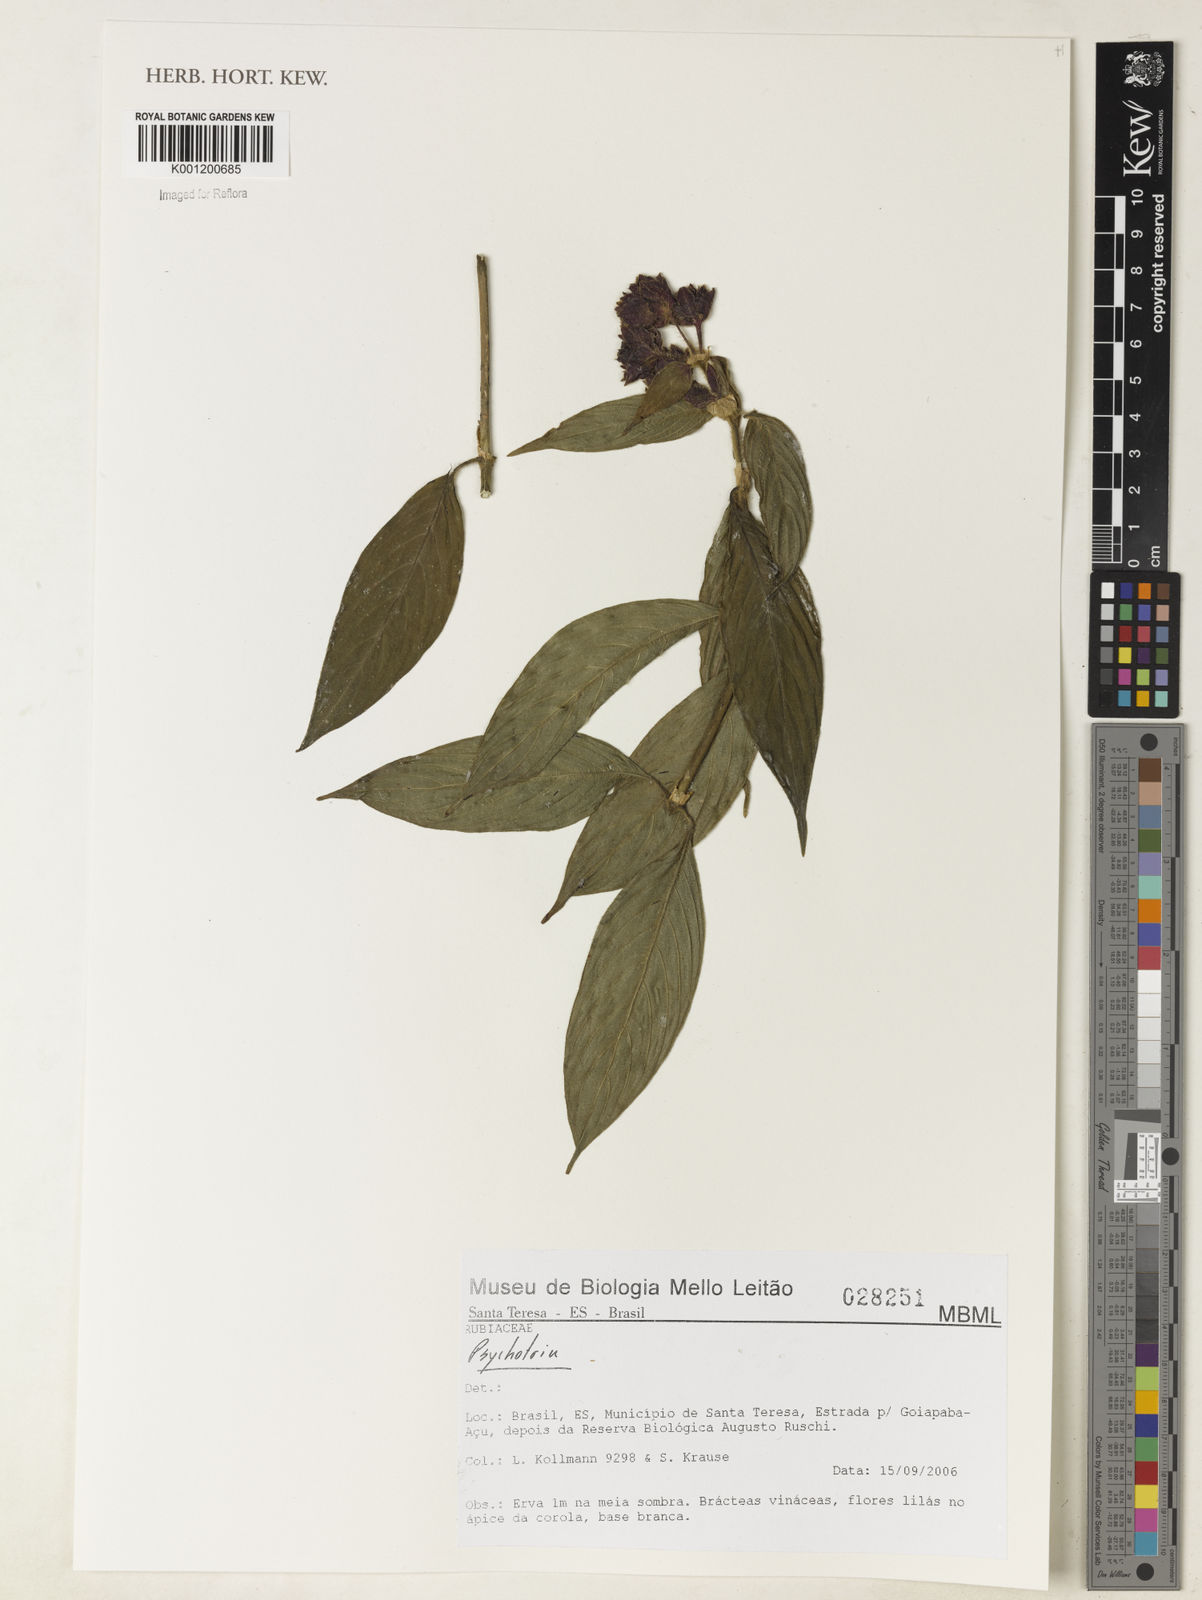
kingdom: Plantae
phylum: Tracheophyta
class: Magnoliopsida
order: Gentianales
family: Rubiaceae
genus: Psychotria
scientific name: Psychotria
